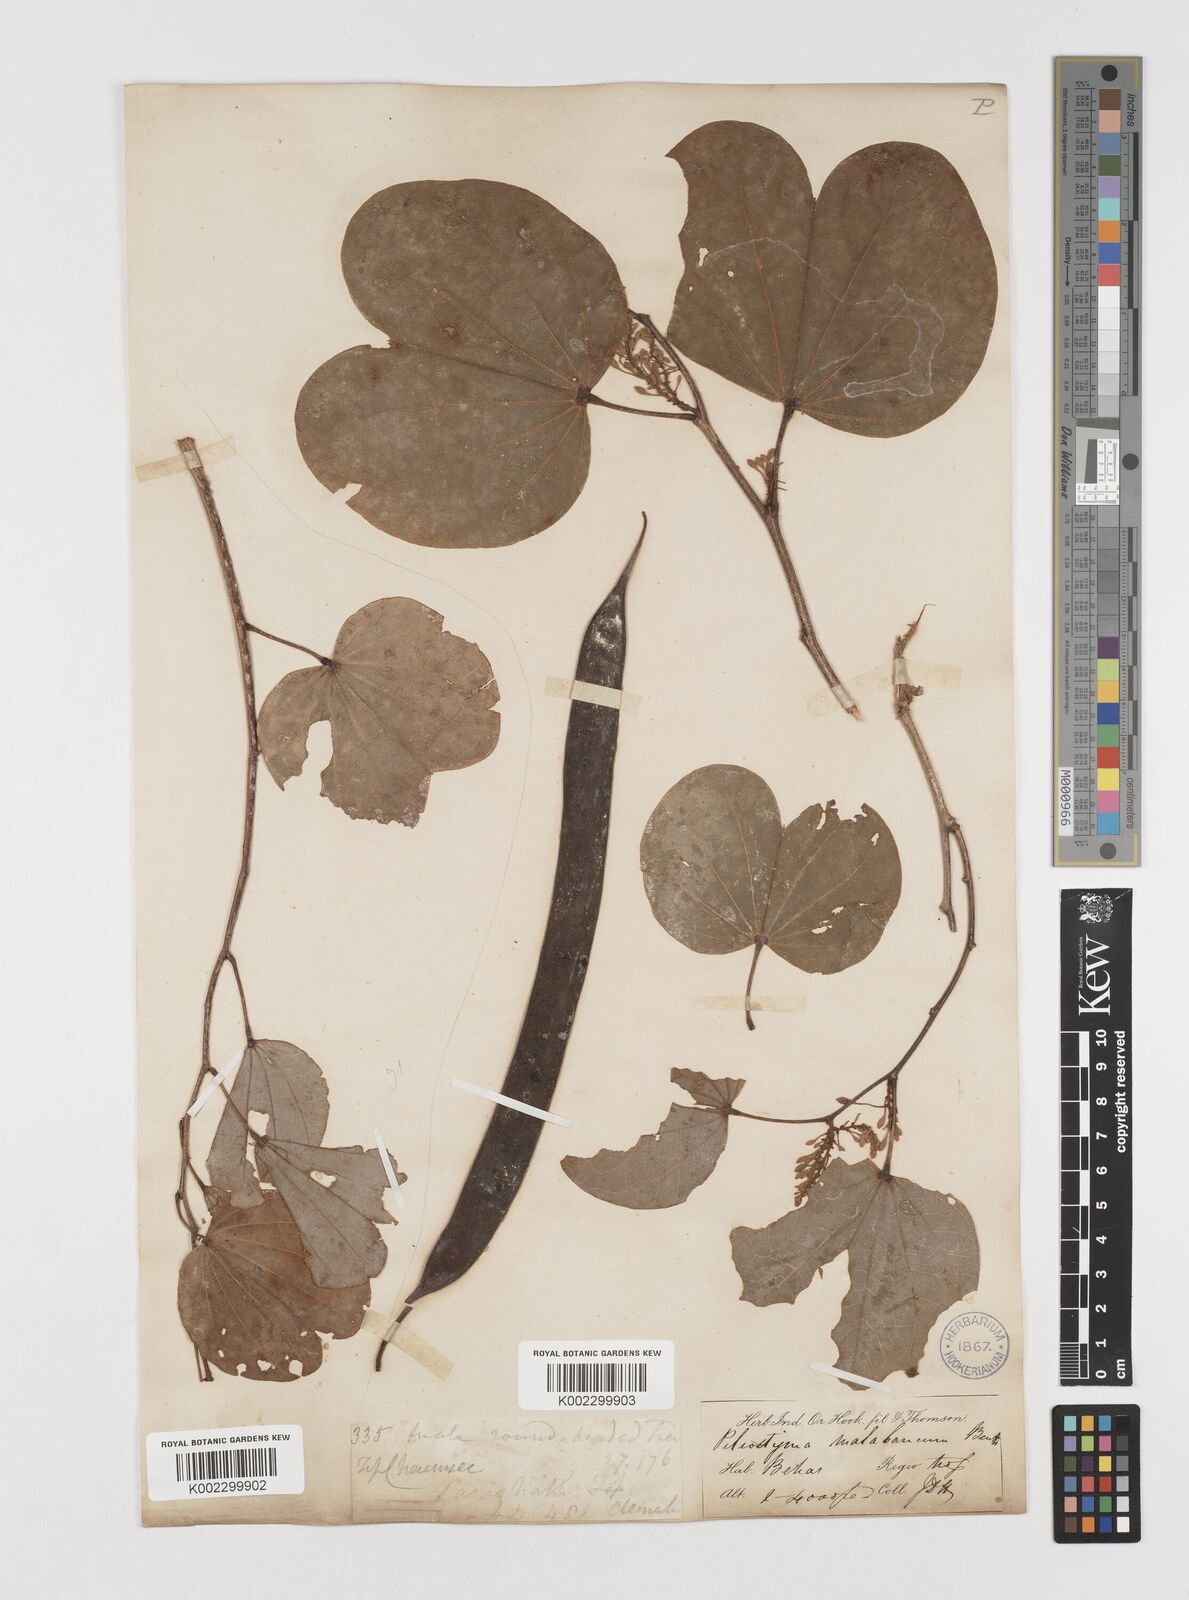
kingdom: Plantae
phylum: Tracheophyta
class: Magnoliopsida
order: Fabales
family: Fabaceae
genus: Piliostigma
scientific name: Piliostigma malabaricum
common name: Malabar bauhinia
